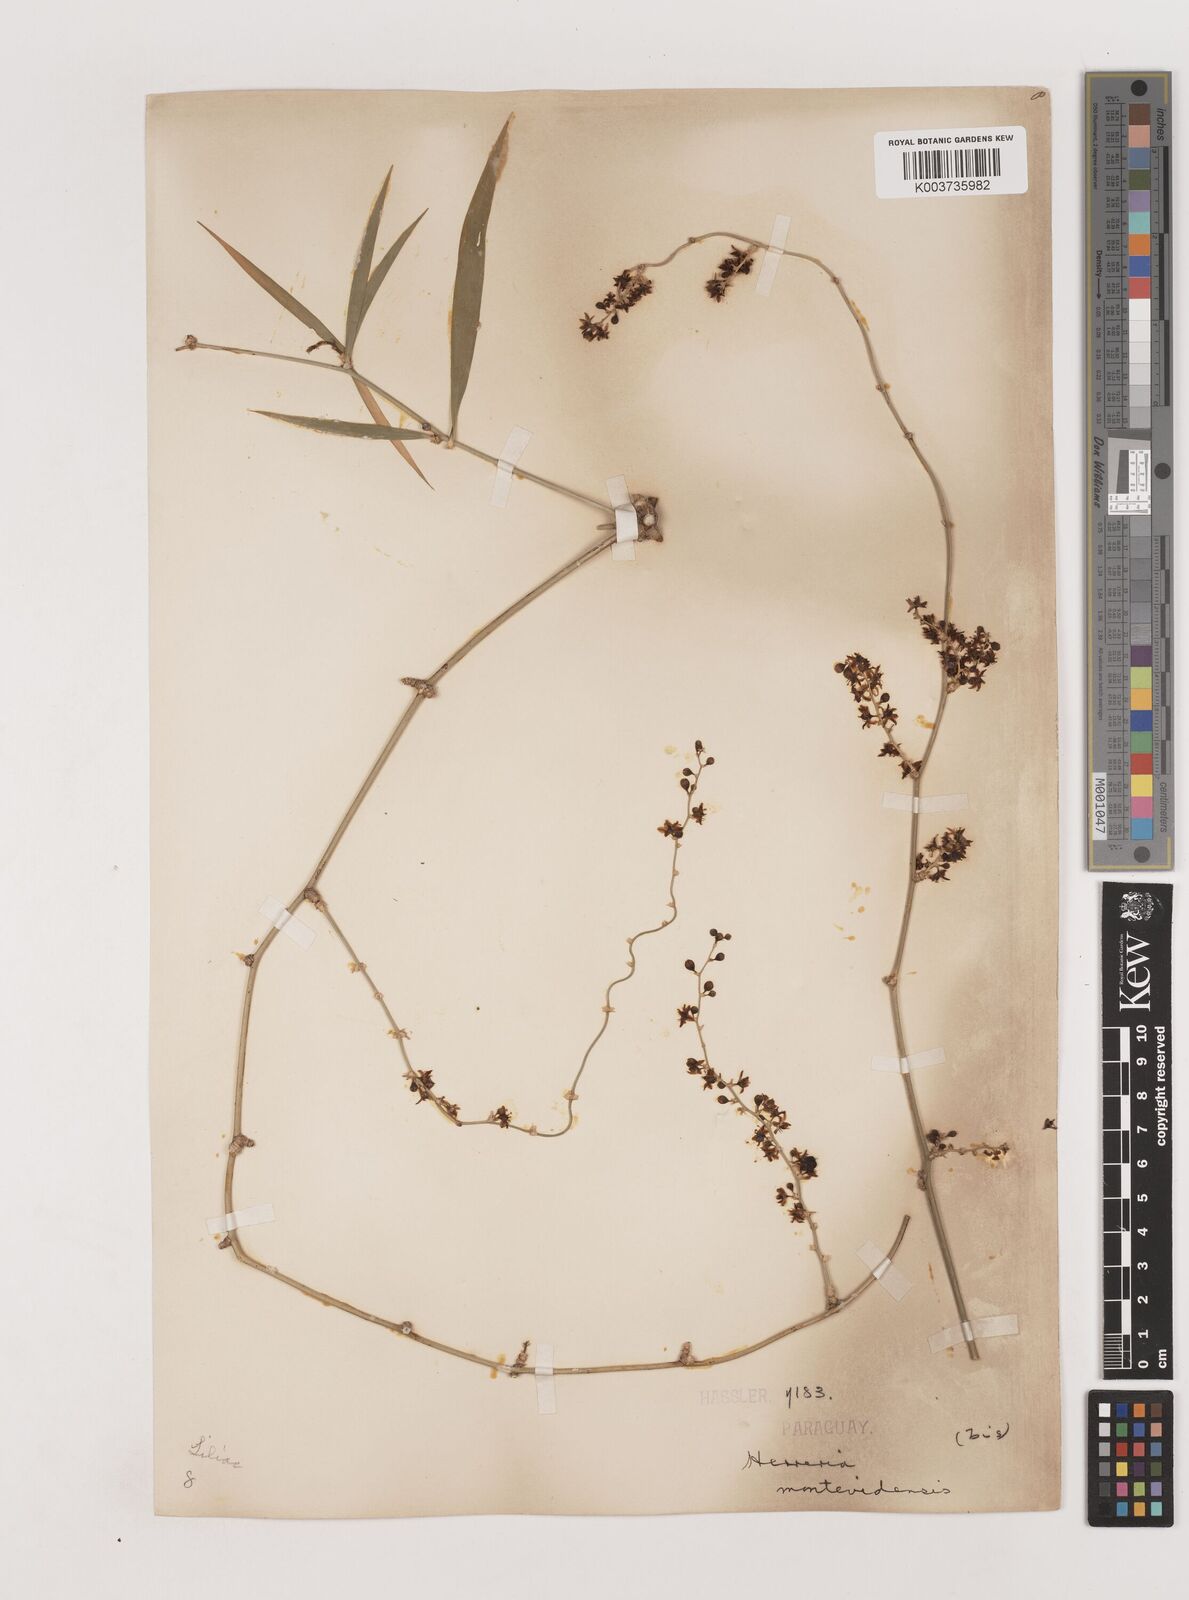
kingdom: Plantae
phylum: Tracheophyta
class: Liliopsida
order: Asparagales
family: Asparagaceae
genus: Herreria
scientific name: Herreria montevidensis
